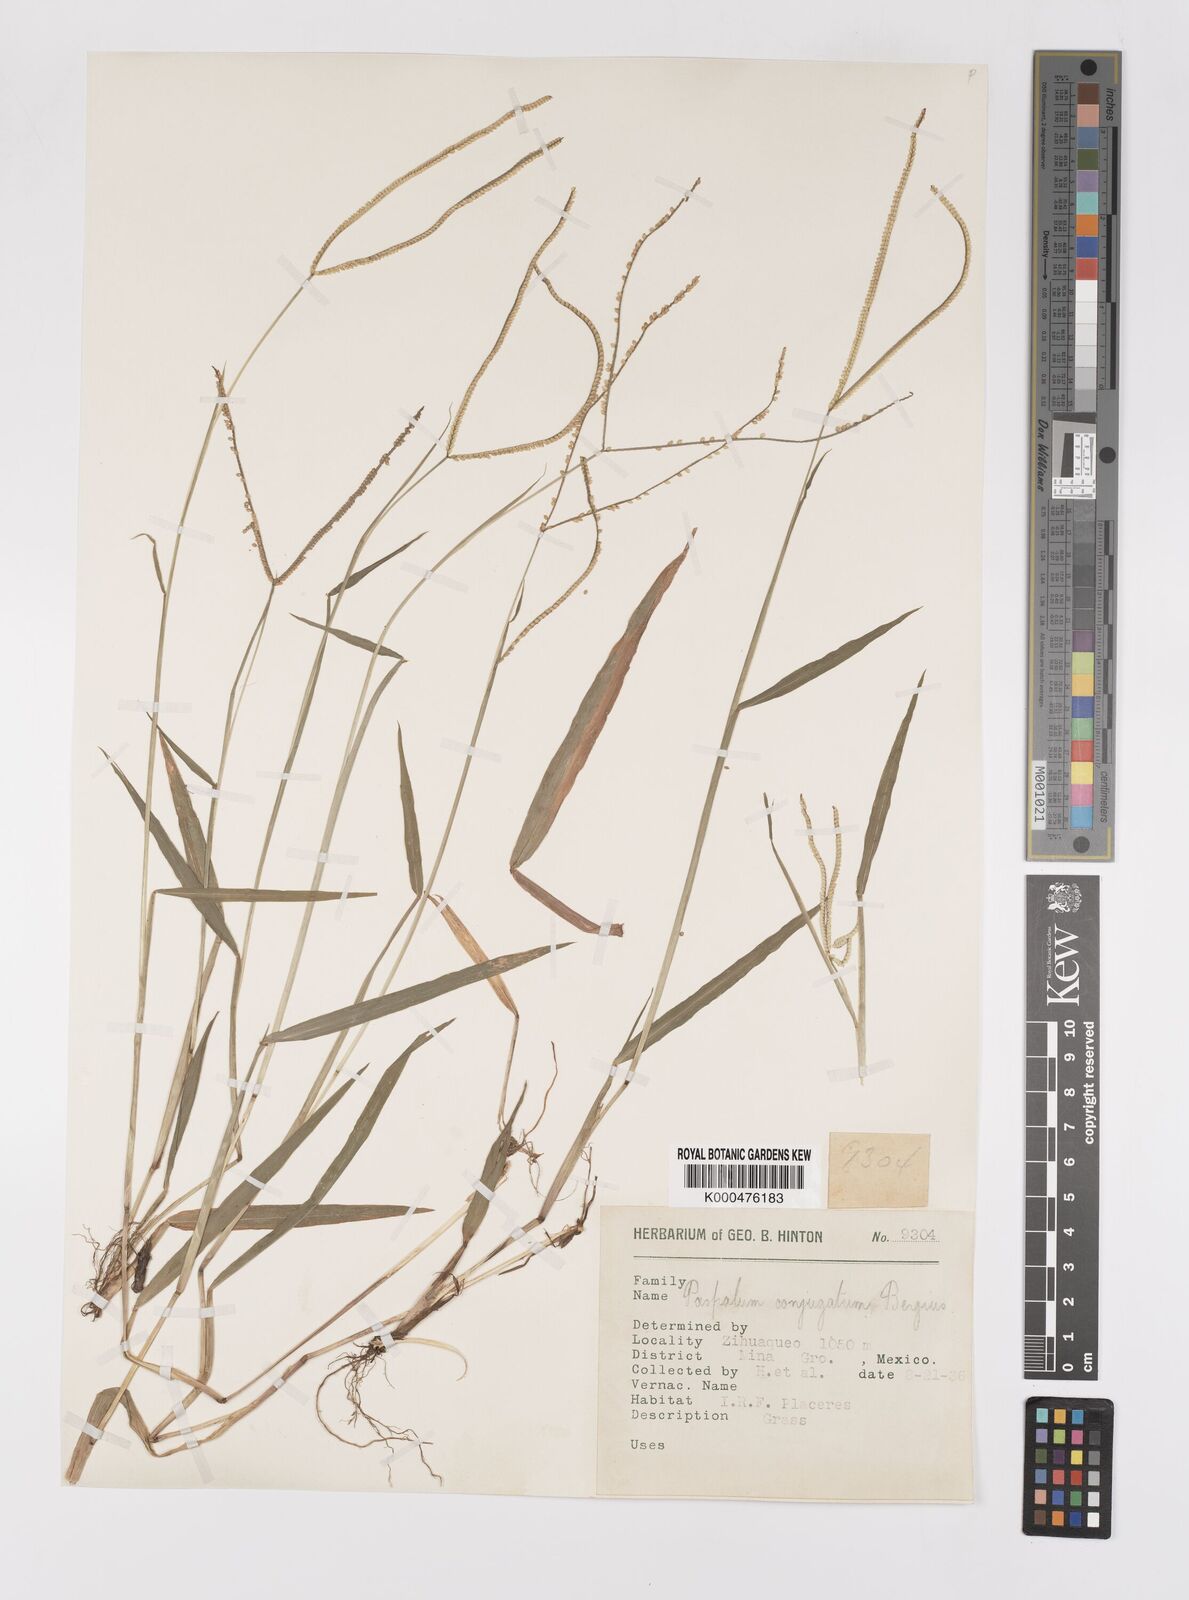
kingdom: Plantae
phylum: Tracheophyta
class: Liliopsida
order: Poales
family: Poaceae
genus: Paspalum
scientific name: Paspalum conjugatum
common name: Hilograss
